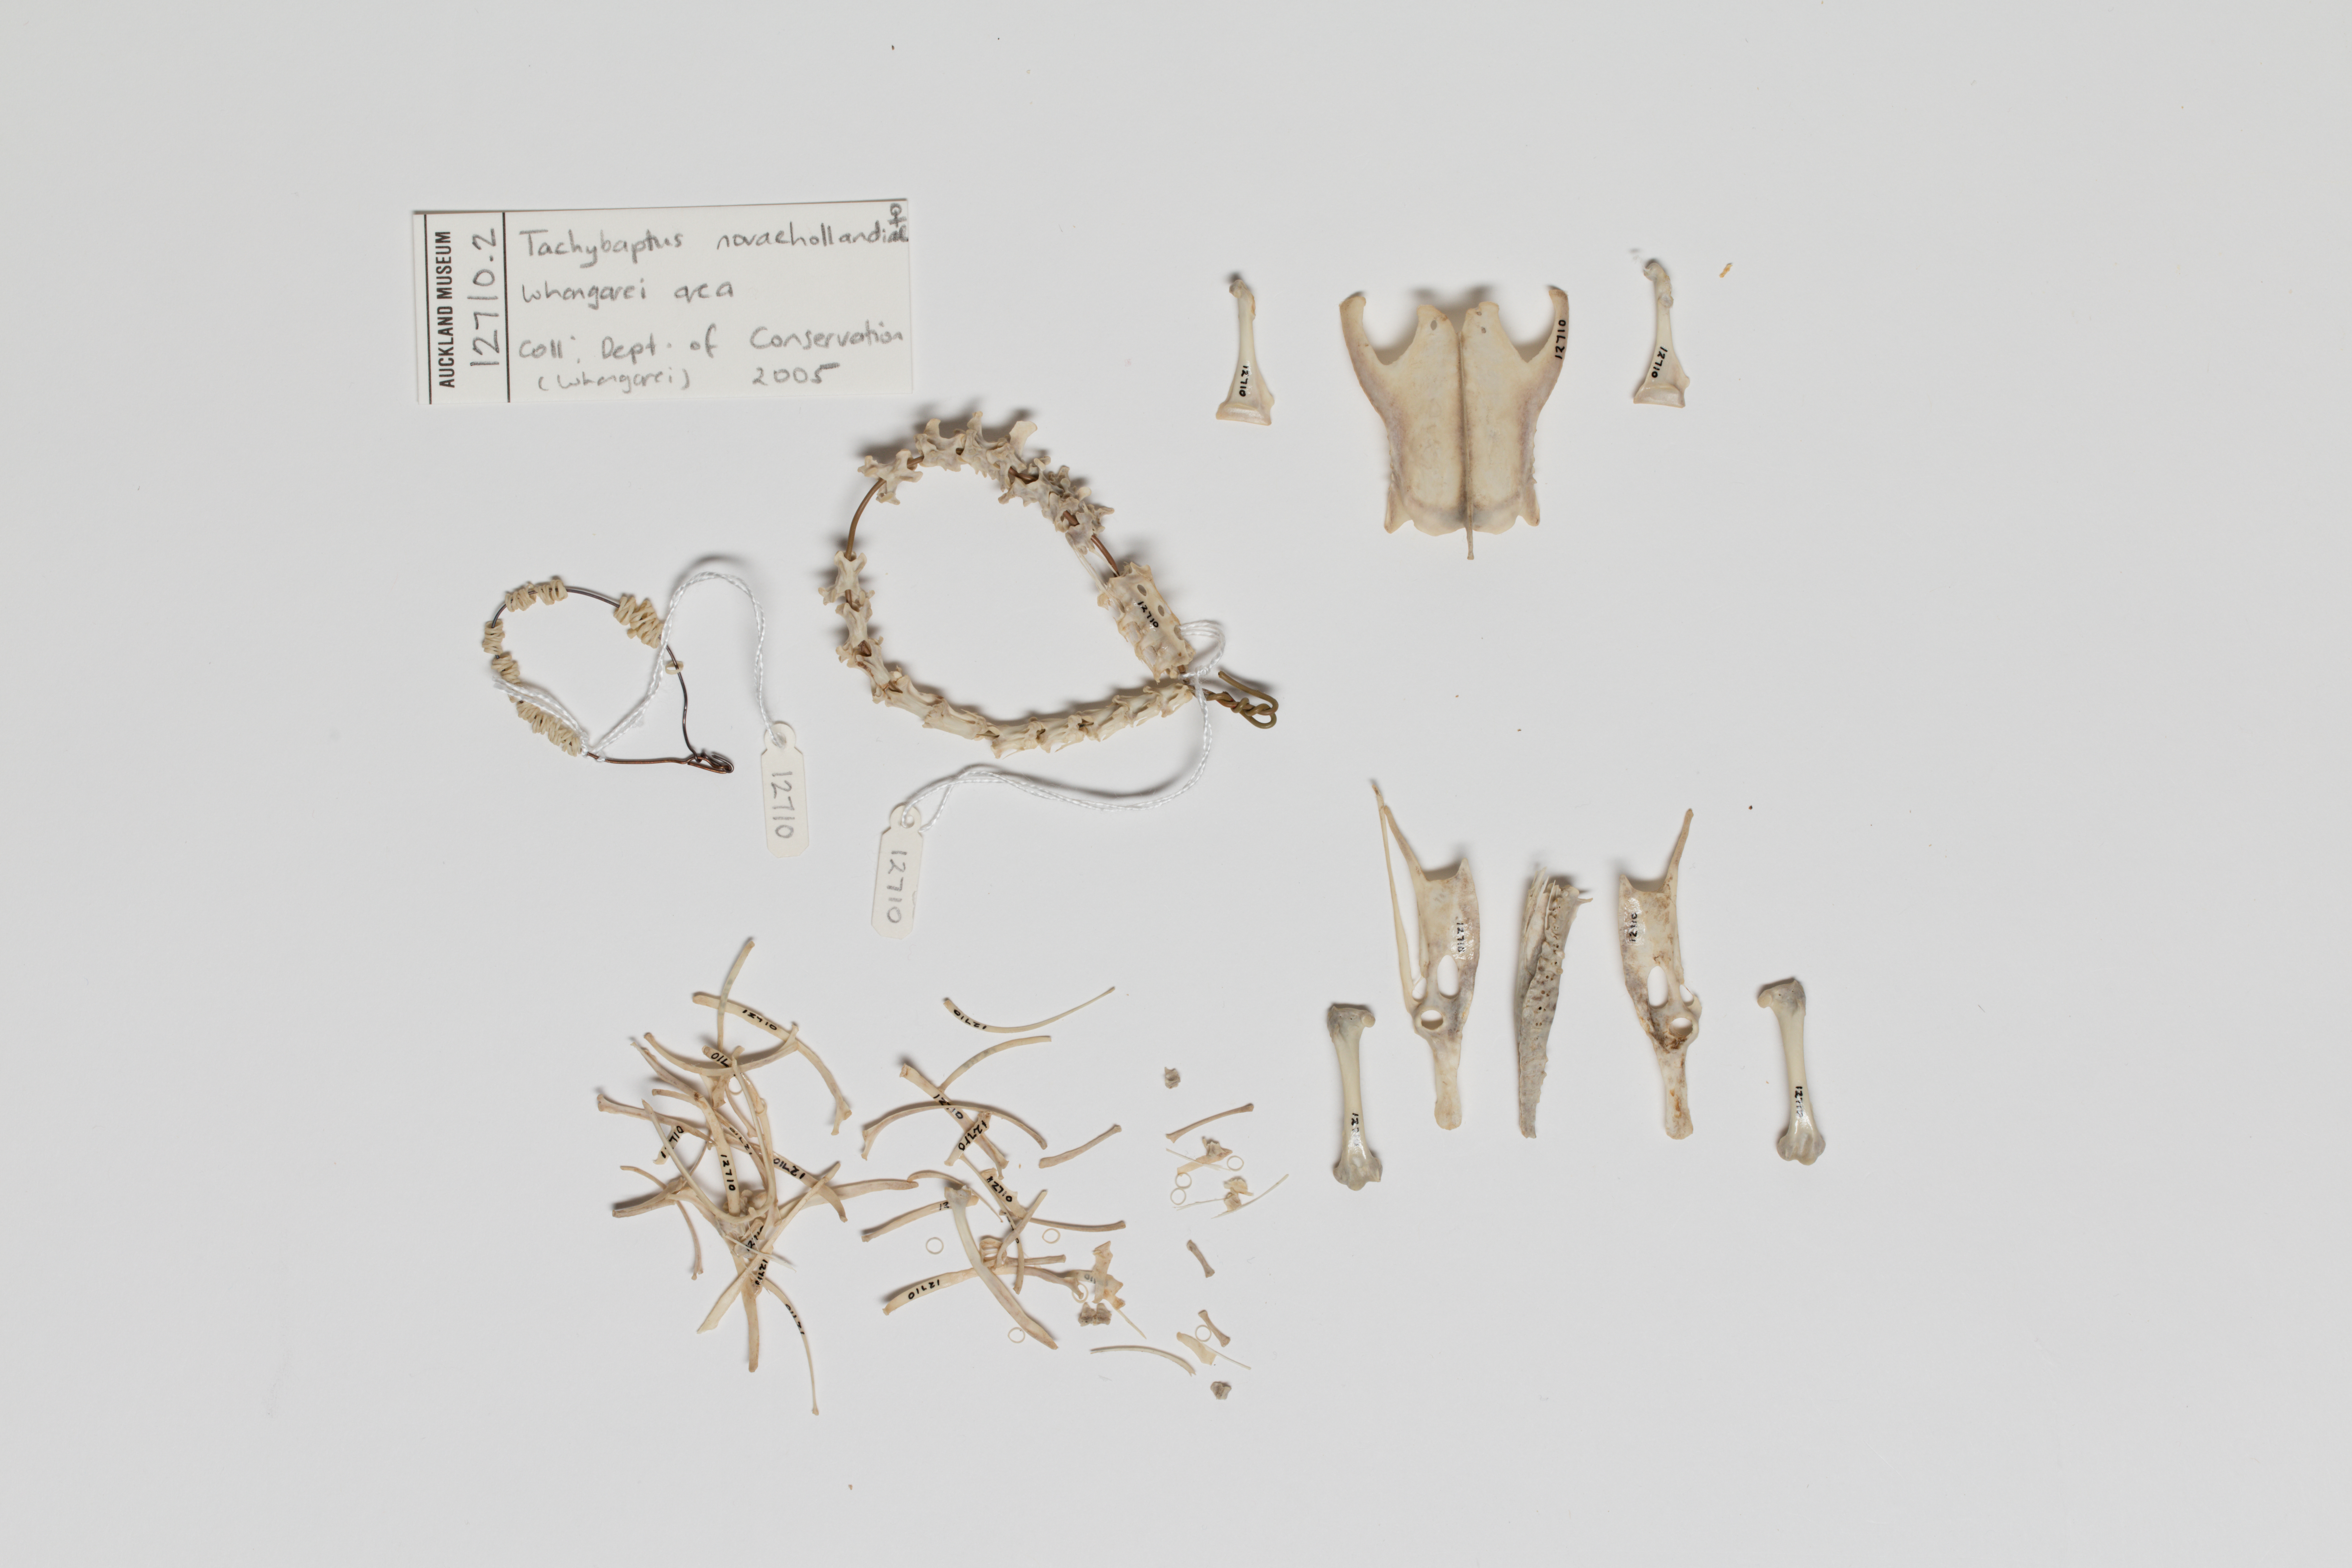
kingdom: Animalia
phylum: Chordata
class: Aves
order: Podicipediformes
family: Podicipedidae
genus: Tachybaptus
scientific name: Tachybaptus novaehollandiae
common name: Australasian grebe
